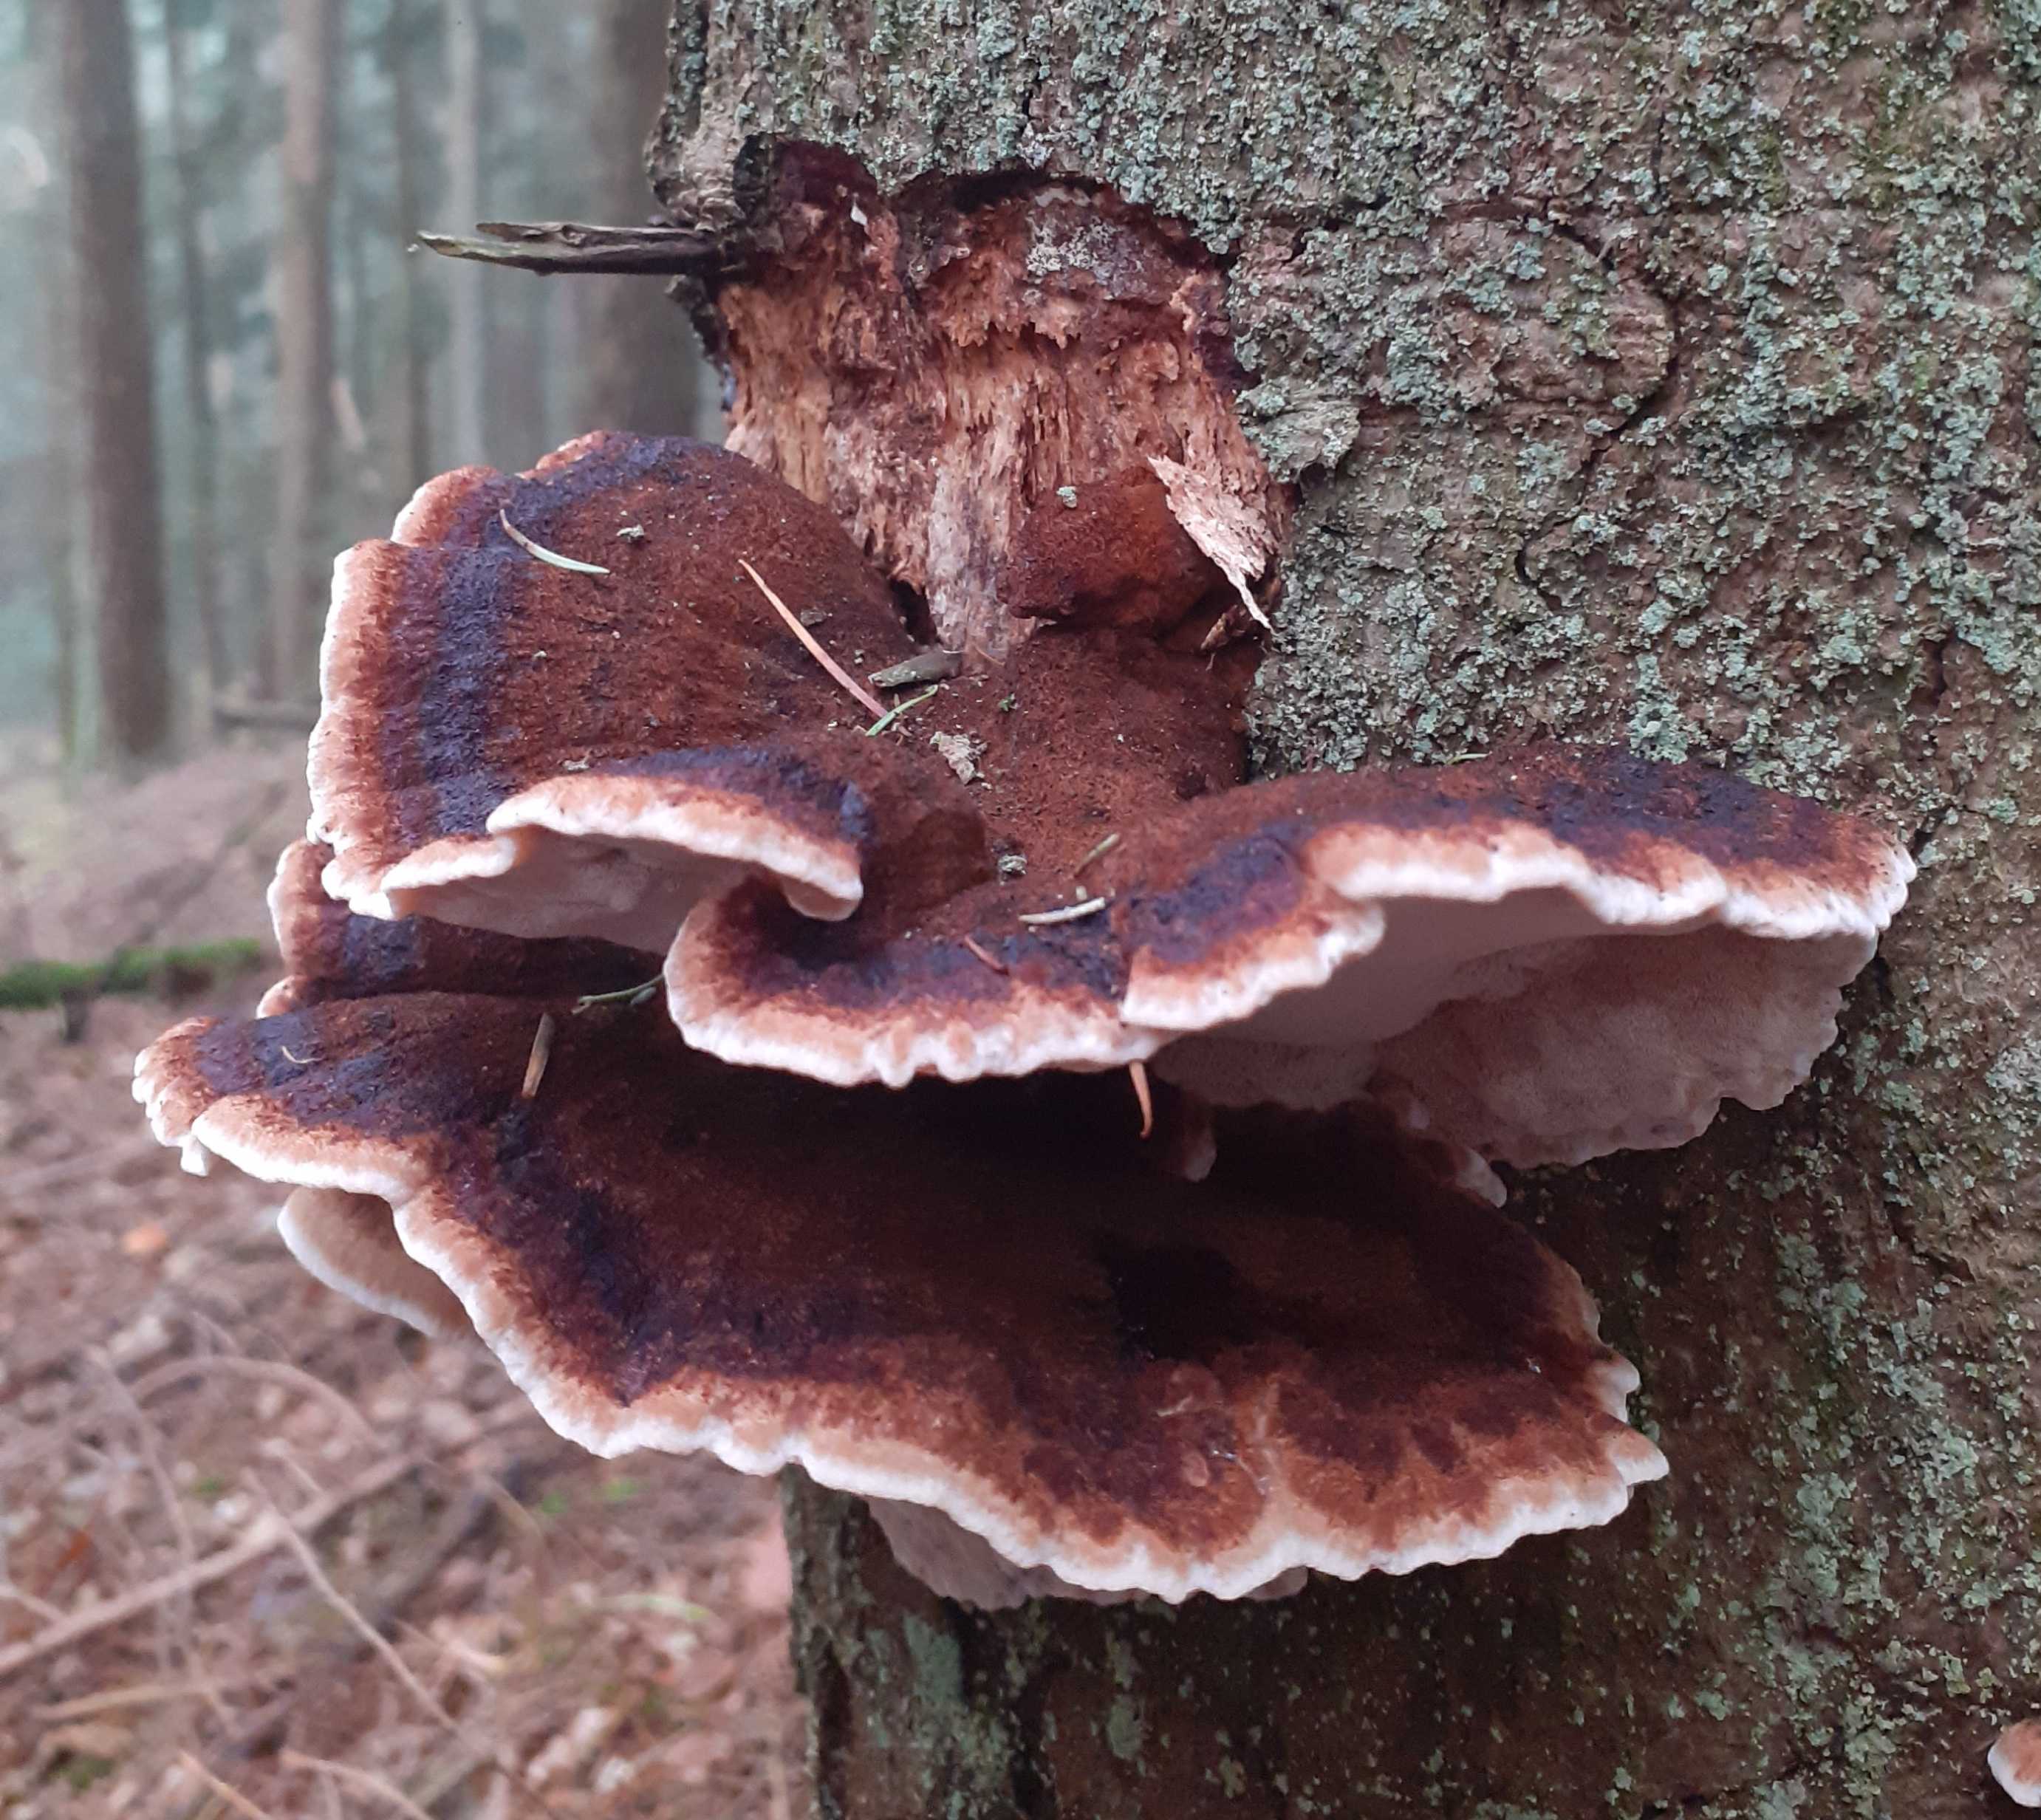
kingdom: Fungi
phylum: Basidiomycota
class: Agaricomycetes
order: Polyporales
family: Ischnodermataceae
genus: Ischnoderma
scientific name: Ischnoderma benzoinum
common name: gran-tjæreporesvamp
